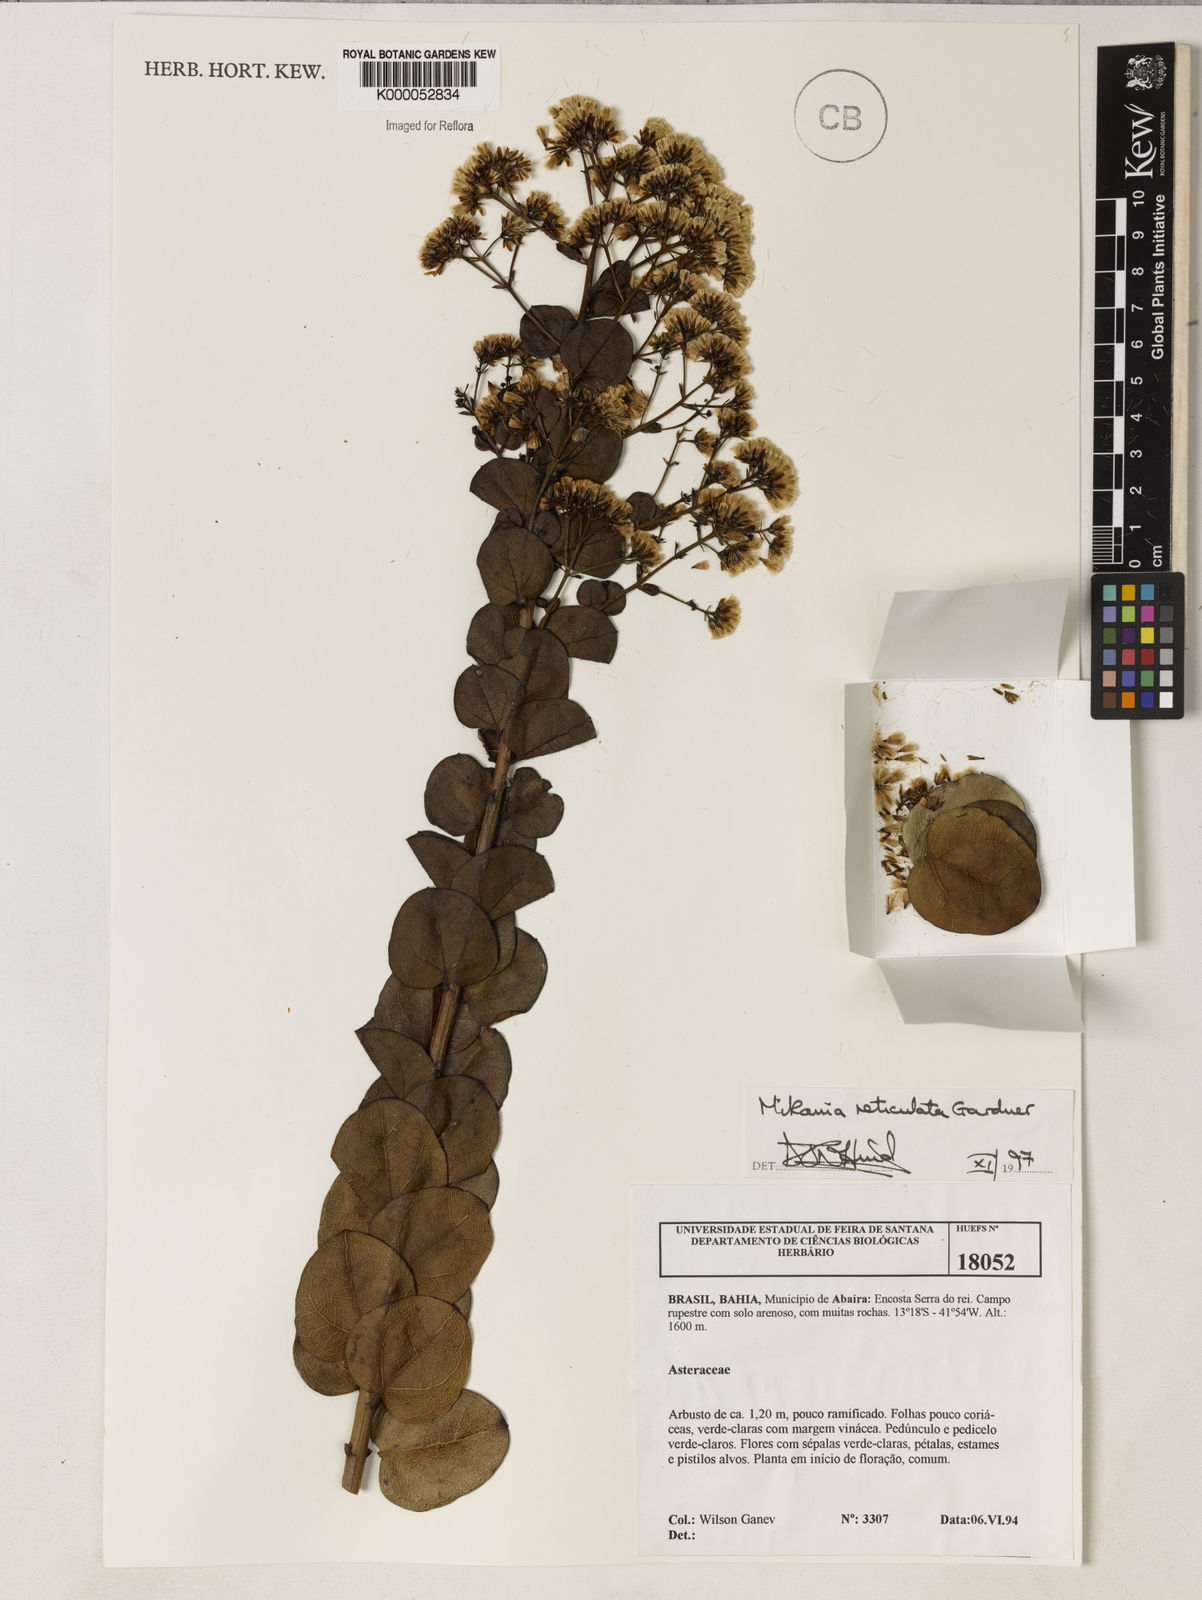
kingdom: Plantae
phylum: Tracheophyta
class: Magnoliopsida
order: Asterales
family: Asteraceae
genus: Mikania
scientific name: Mikania reticulata
